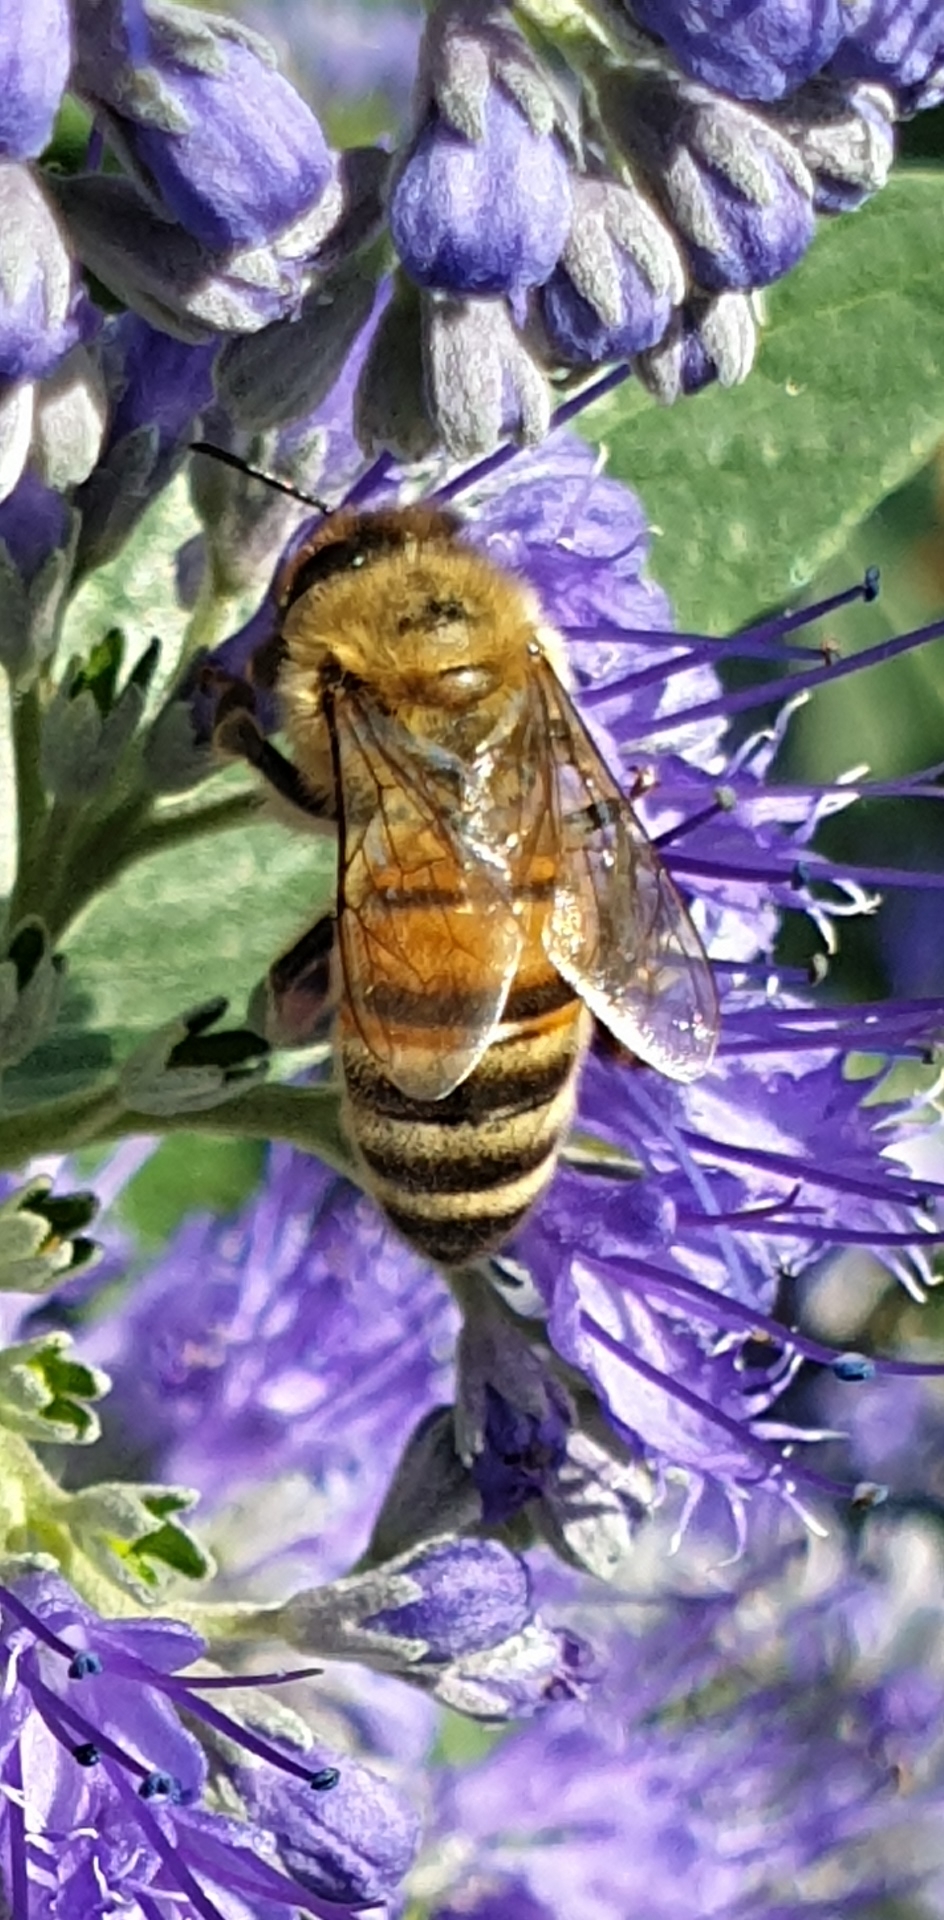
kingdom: Animalia
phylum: Arthropoda
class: Insecta
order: Hymenoptera
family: Apidae
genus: Apis
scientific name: Apis mellifera
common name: Honningbi
